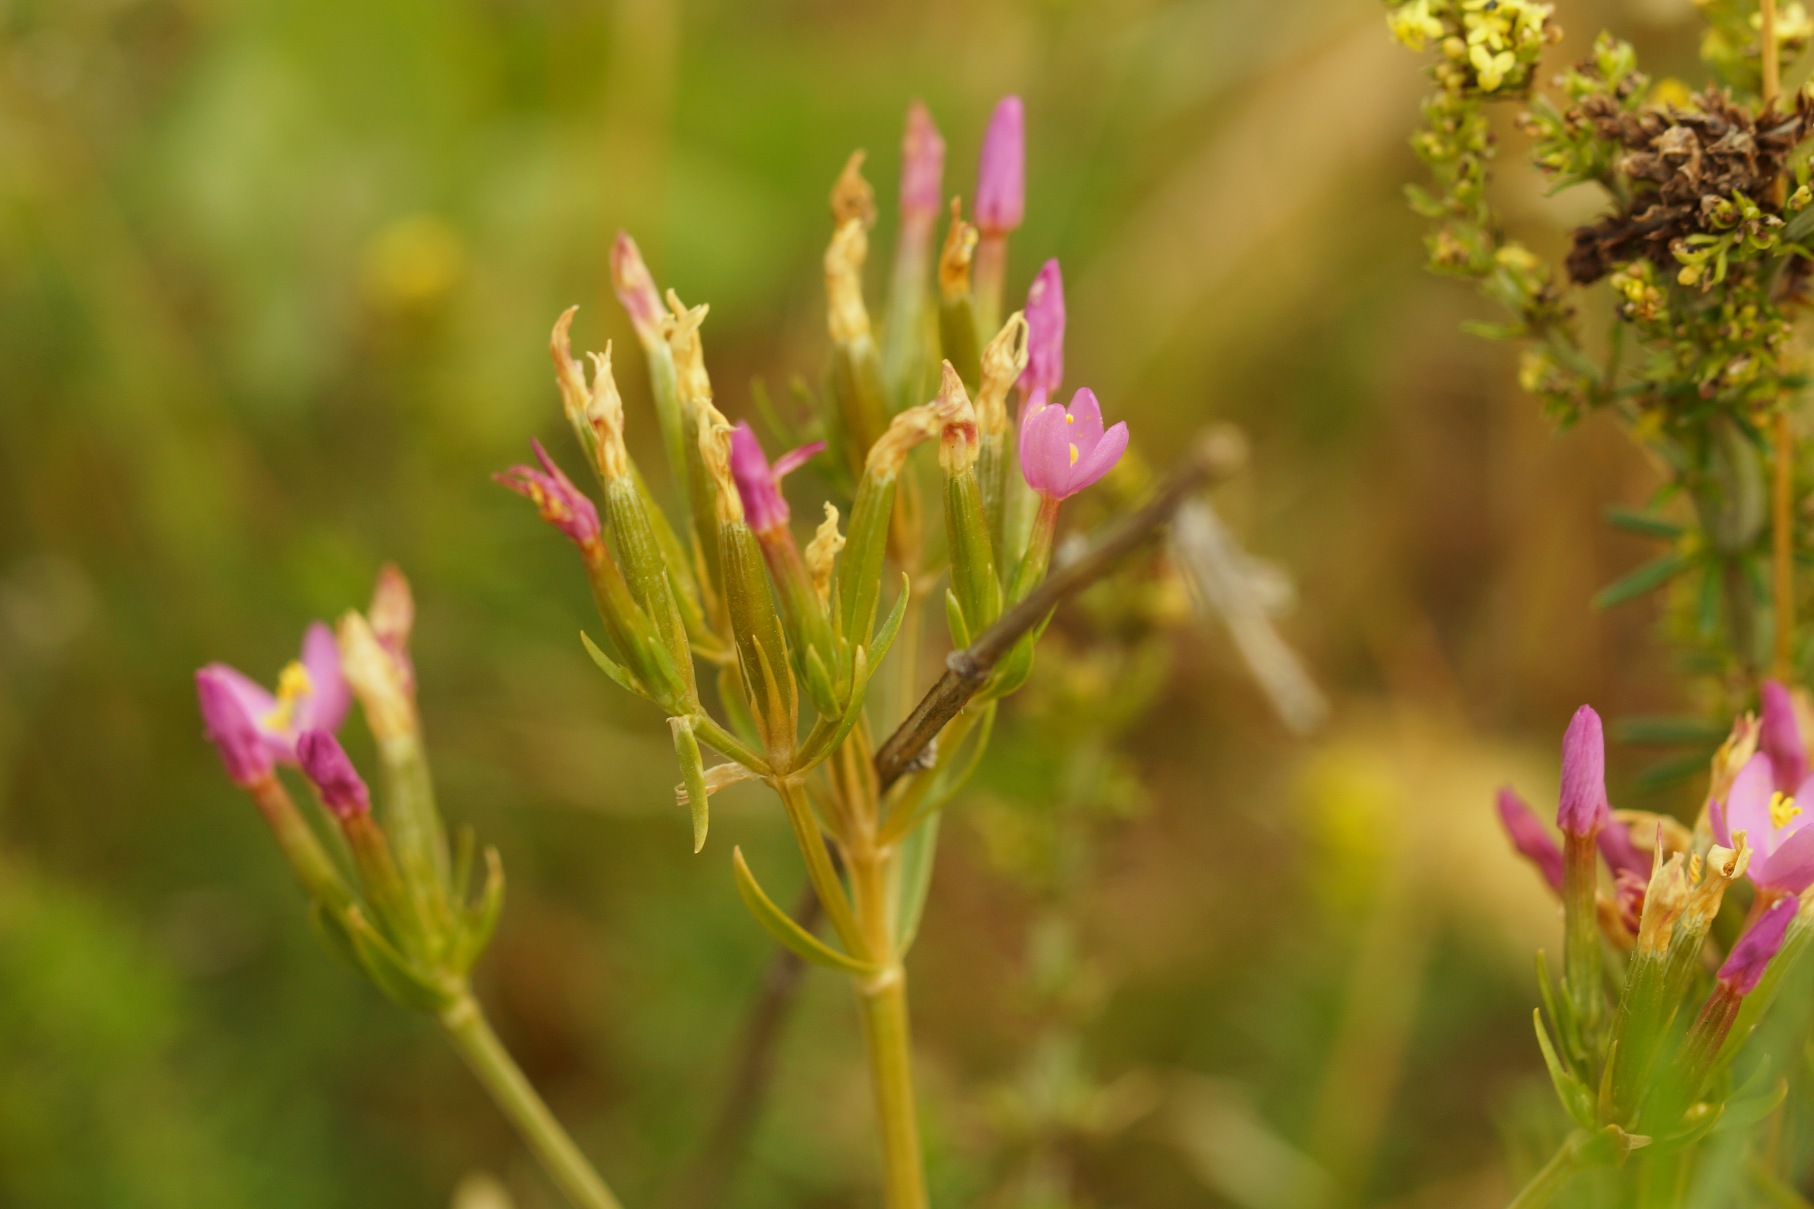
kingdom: Plantae
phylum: Tracheophyta
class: Magnoliopsida
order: Gentianales
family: Gentianaceae
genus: Centaurium
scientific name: Centaurium erythraea
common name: Mark-tusindgylden
